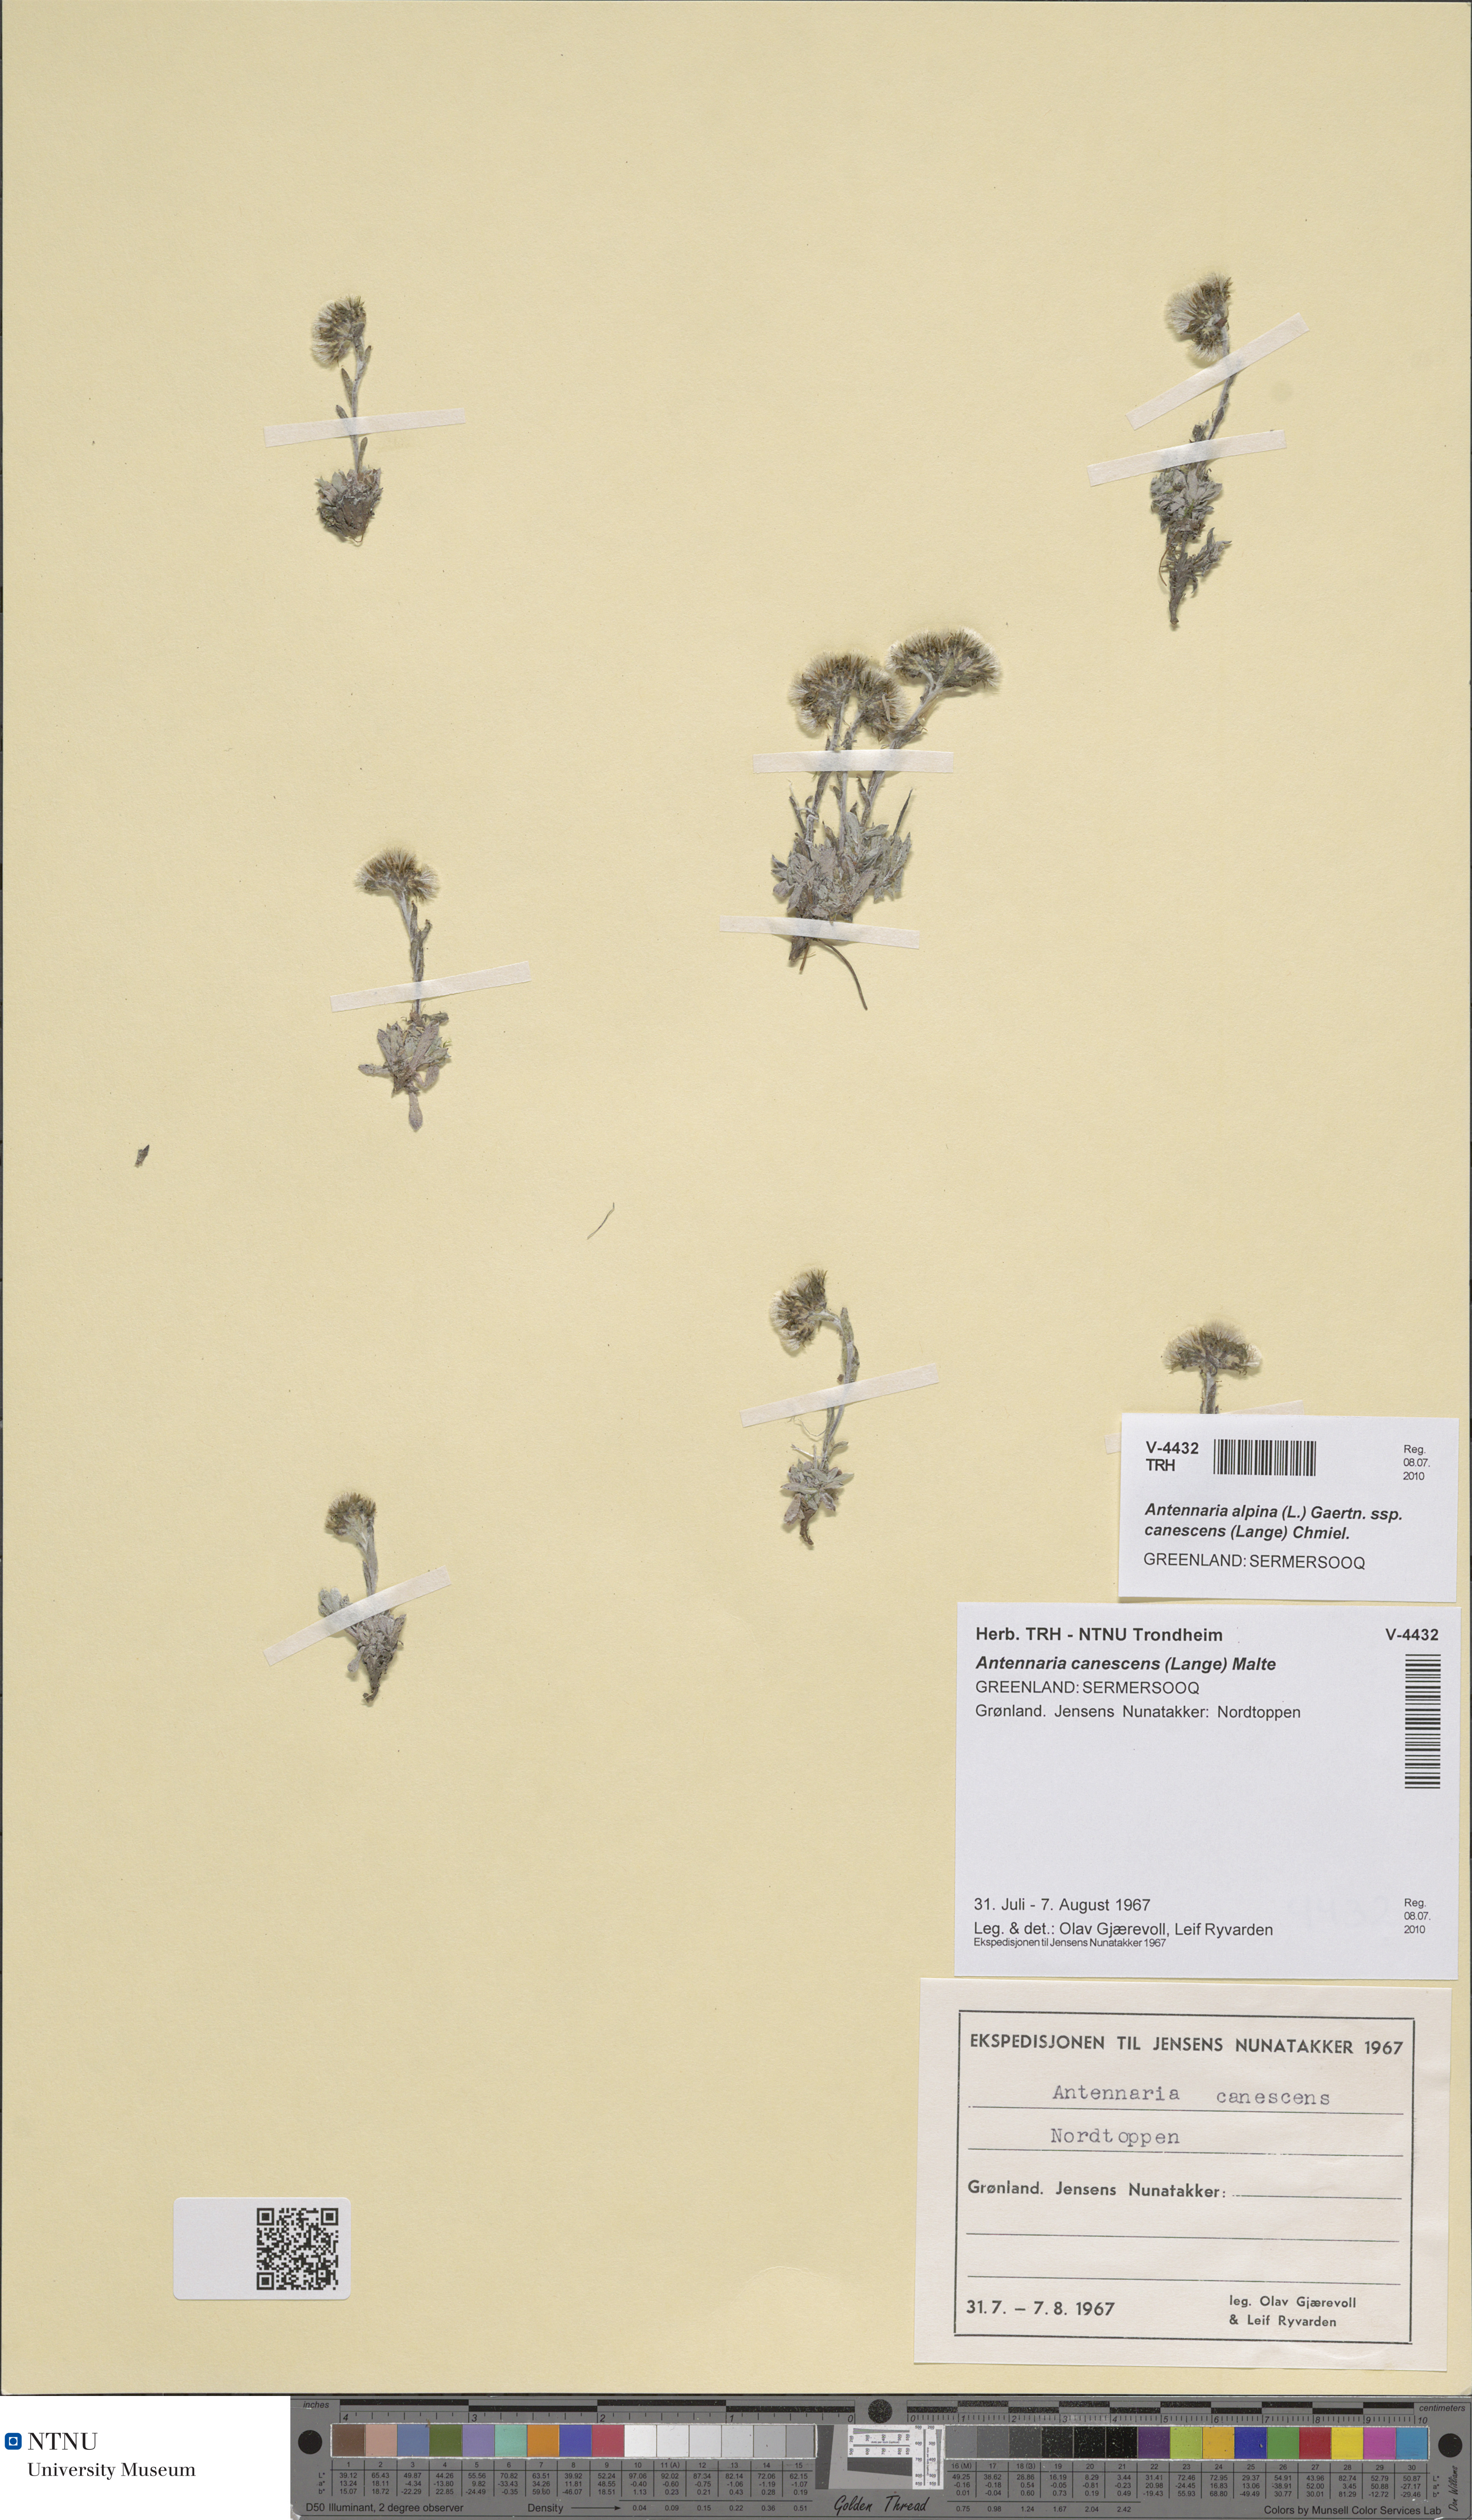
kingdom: Plantae
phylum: Tracheophyta
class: Magnoliopsida
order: Asterales
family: Asteraceae
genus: Antennaria
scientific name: Antennaria canescens
